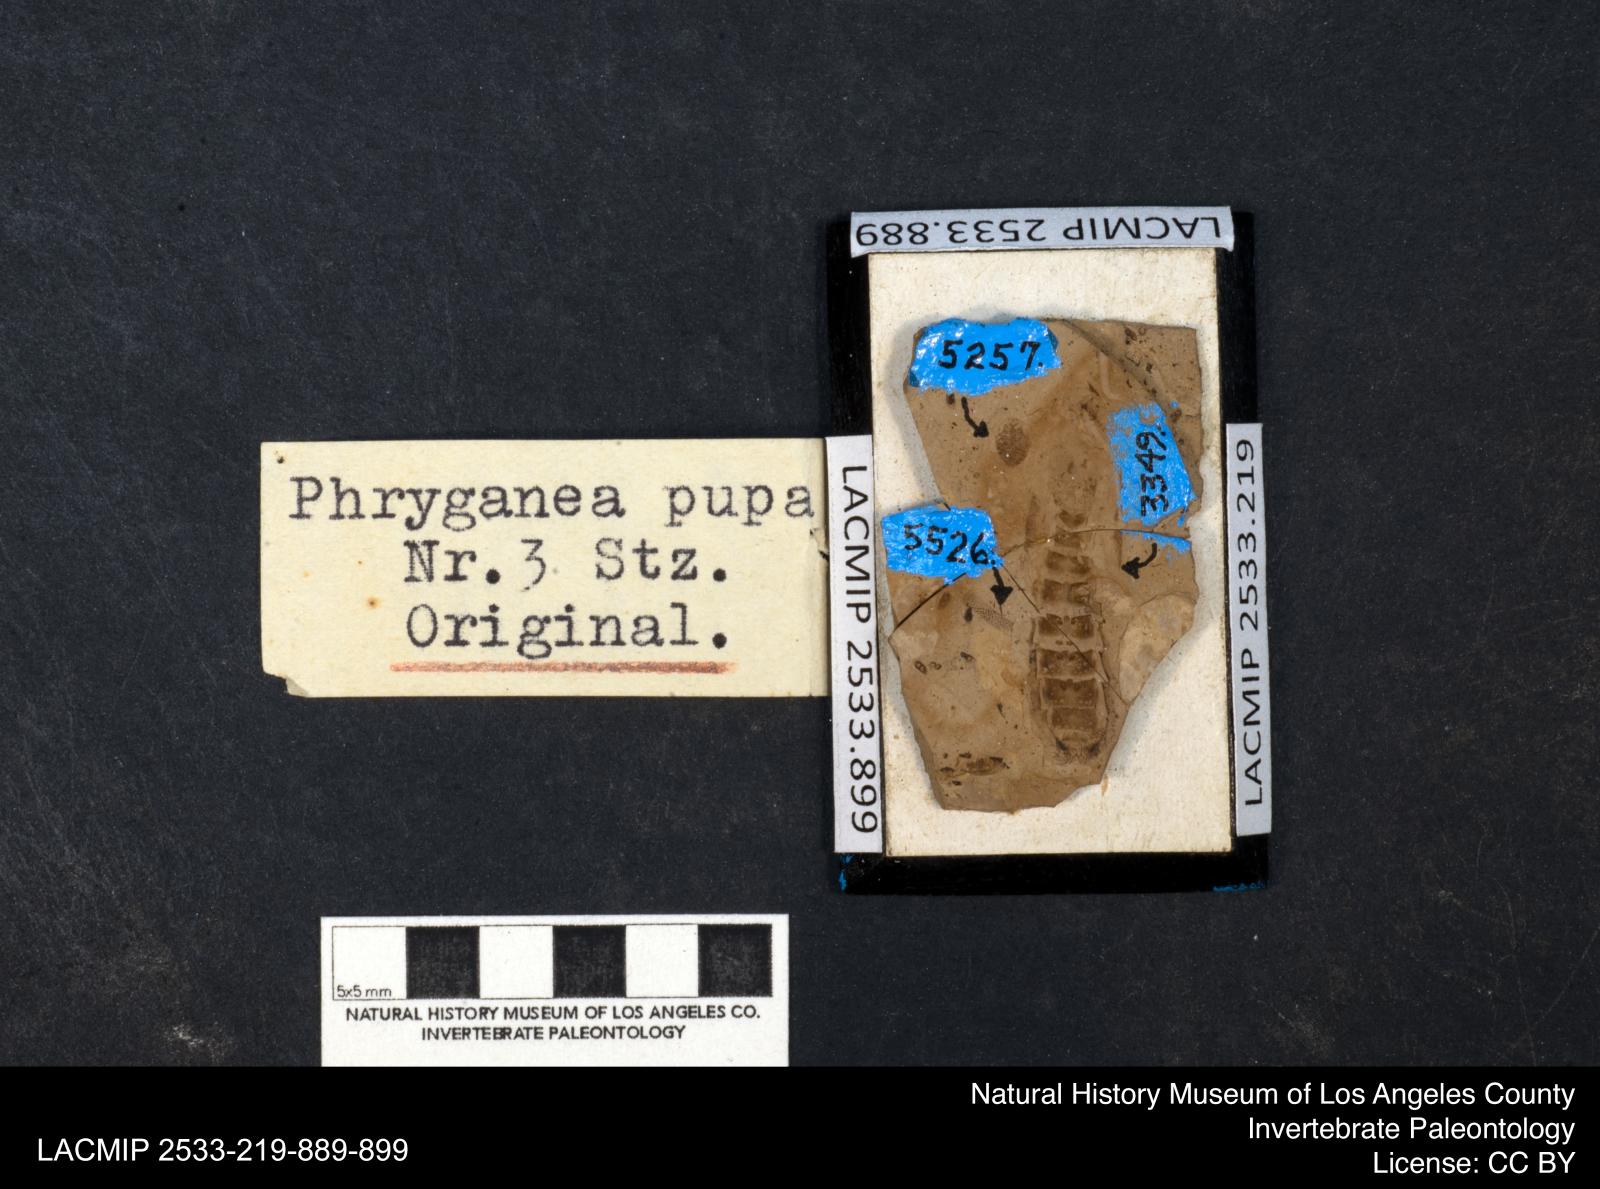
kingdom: Animalia
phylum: Arthropoda
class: Insecta
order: Trichoptera
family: Phryganeidae
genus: Phryganea
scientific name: Phryganea
